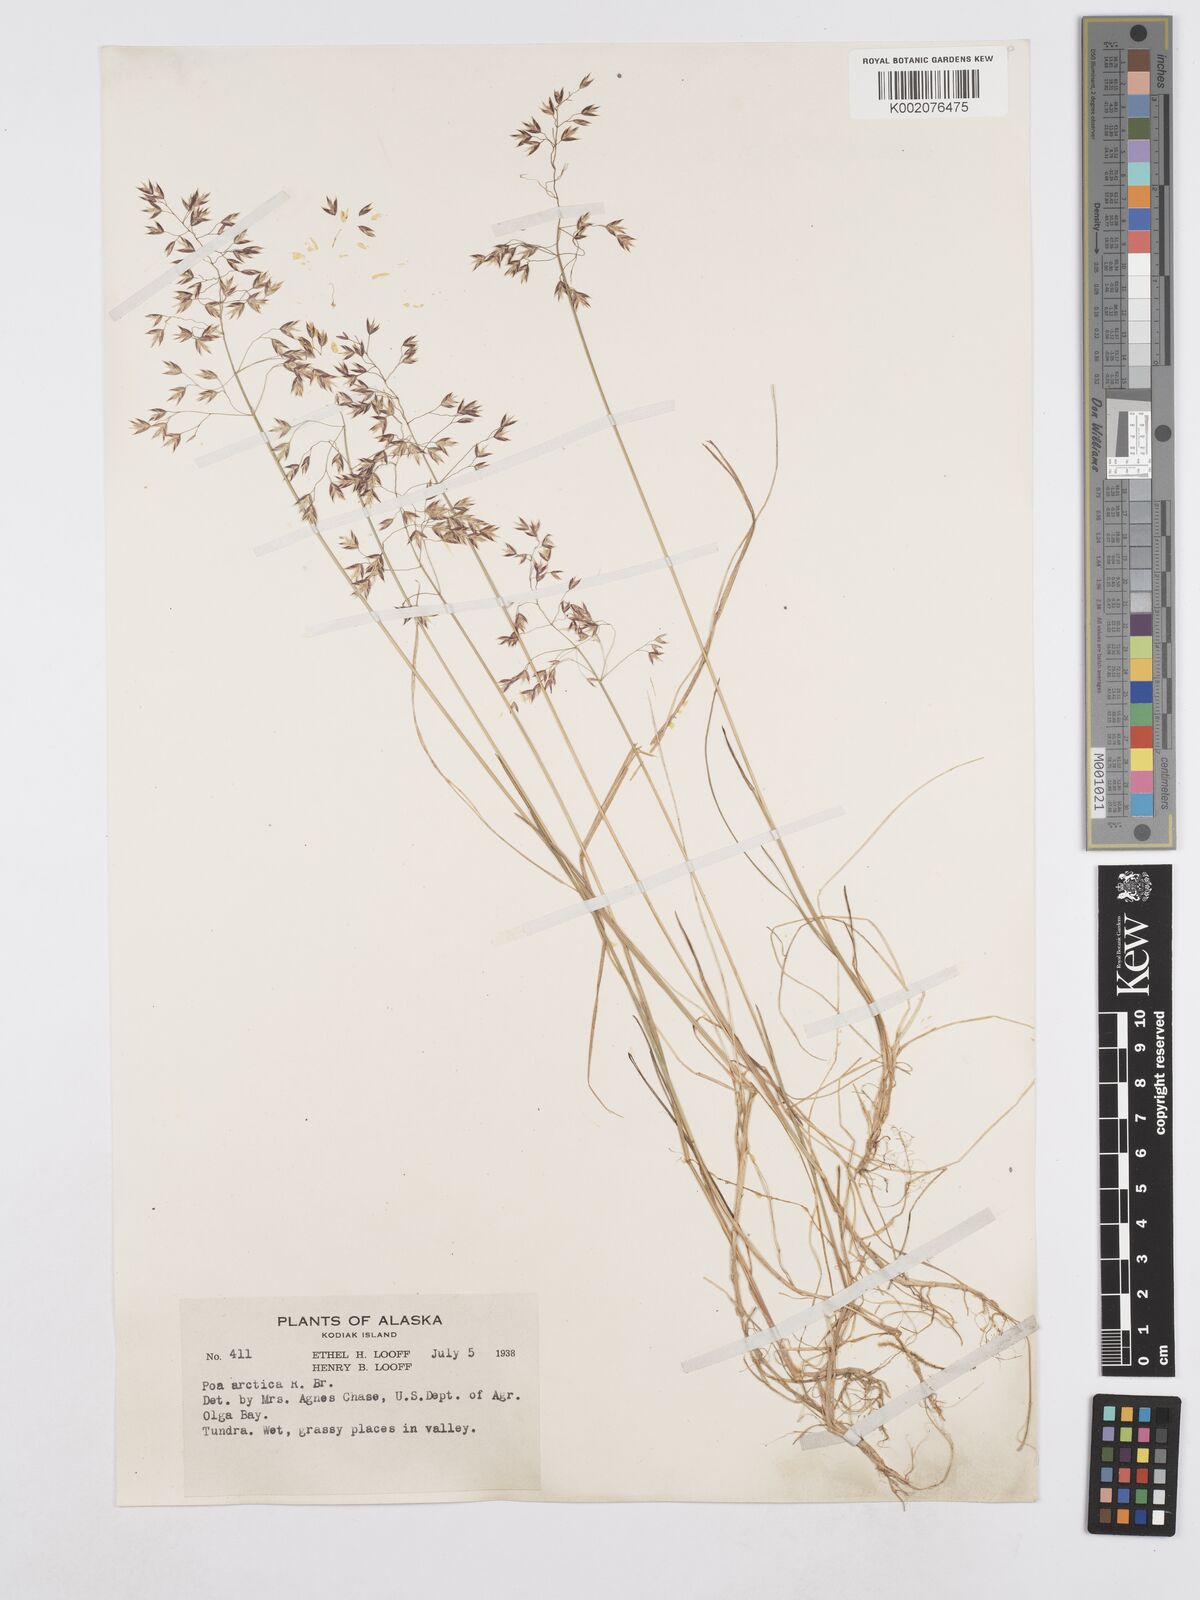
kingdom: Plantae
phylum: Tracheophyta
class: Liliopsida
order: Poales
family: Poaceae
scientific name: Poaceae
